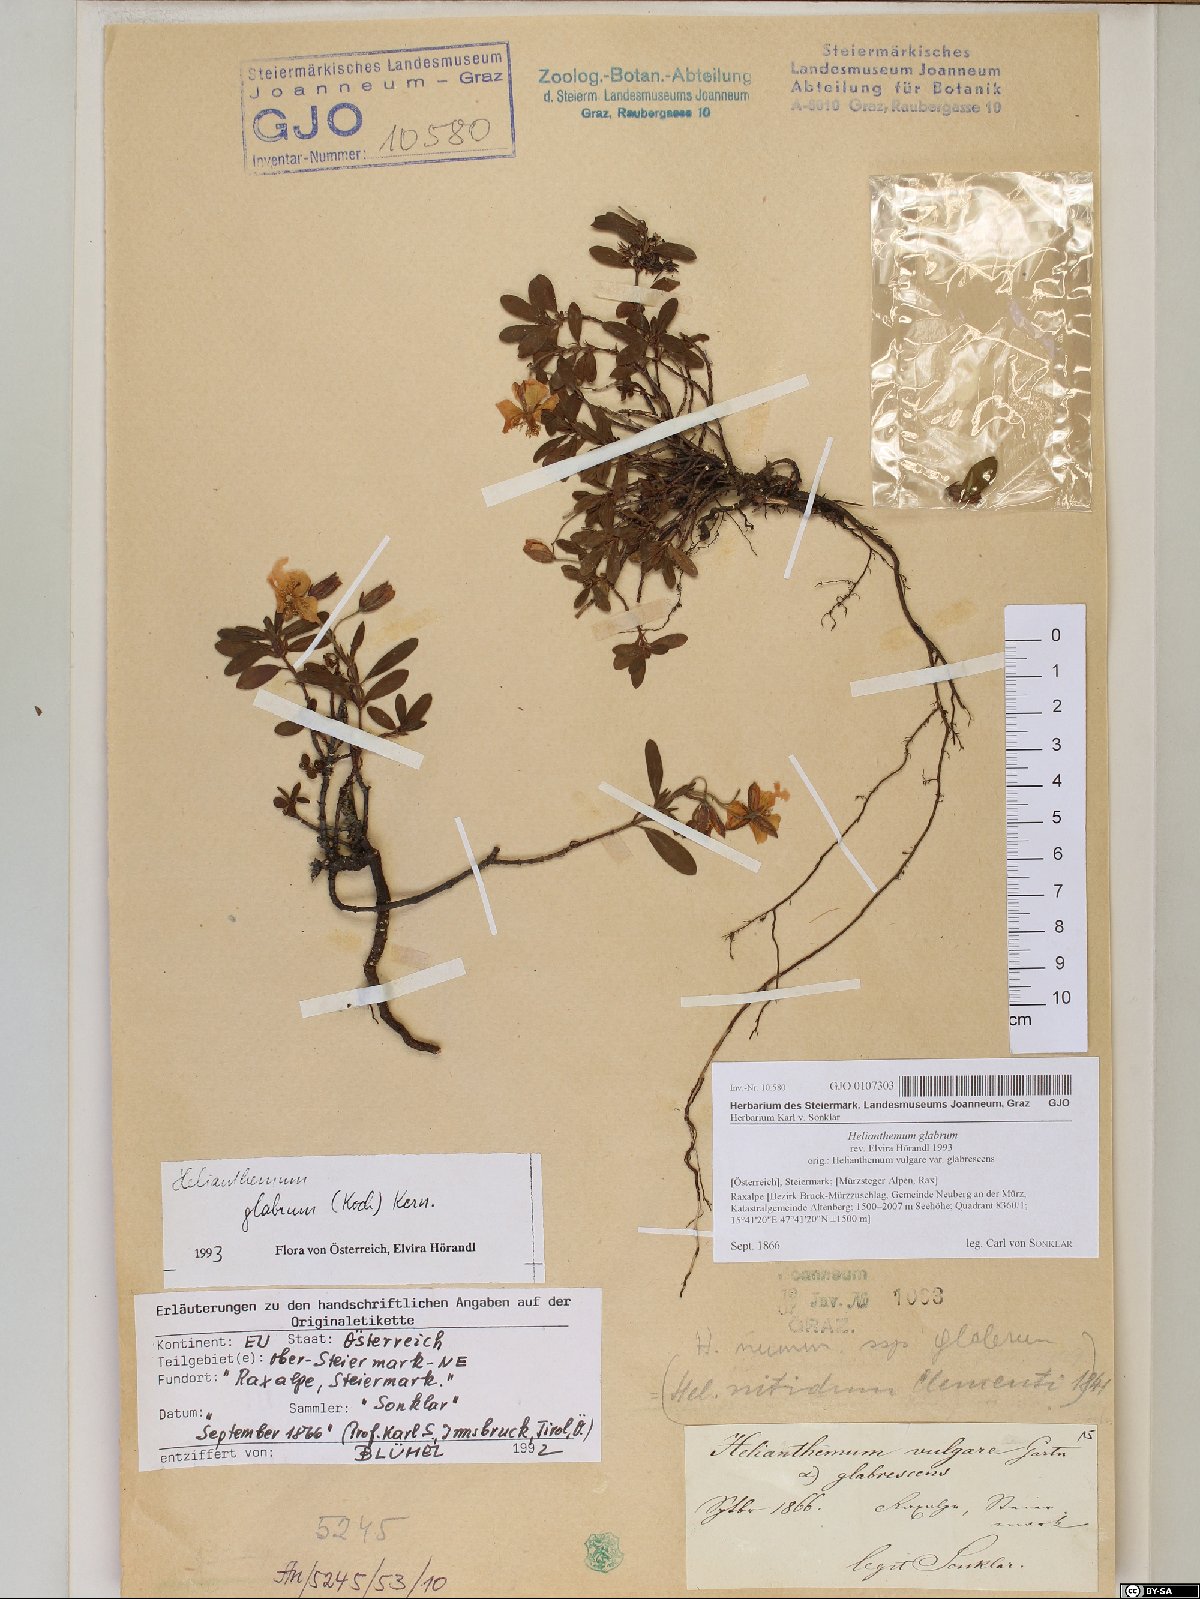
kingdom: Plantae
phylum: Tracheophyta
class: Magnoliopsida
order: Malvales
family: Cistaceae
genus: Helianthemum
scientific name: Helianthemum nummularium
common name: Common rock-rose
